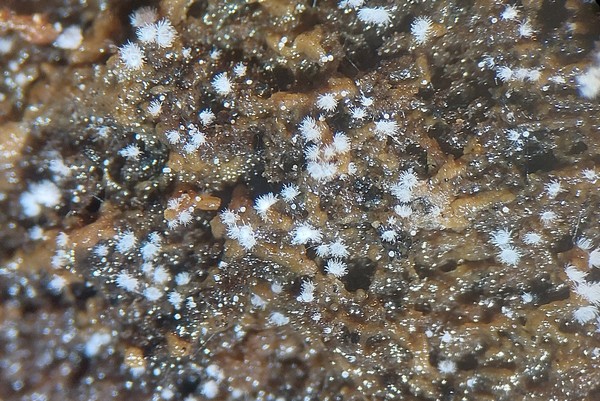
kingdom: Fungi
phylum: Basidiomycota
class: Agaricomycetes
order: Agaricales
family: Tricholomataceae
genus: Pseudolasiobolus
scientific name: Pseudolasiobolus minutissimus
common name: plejadeskål
